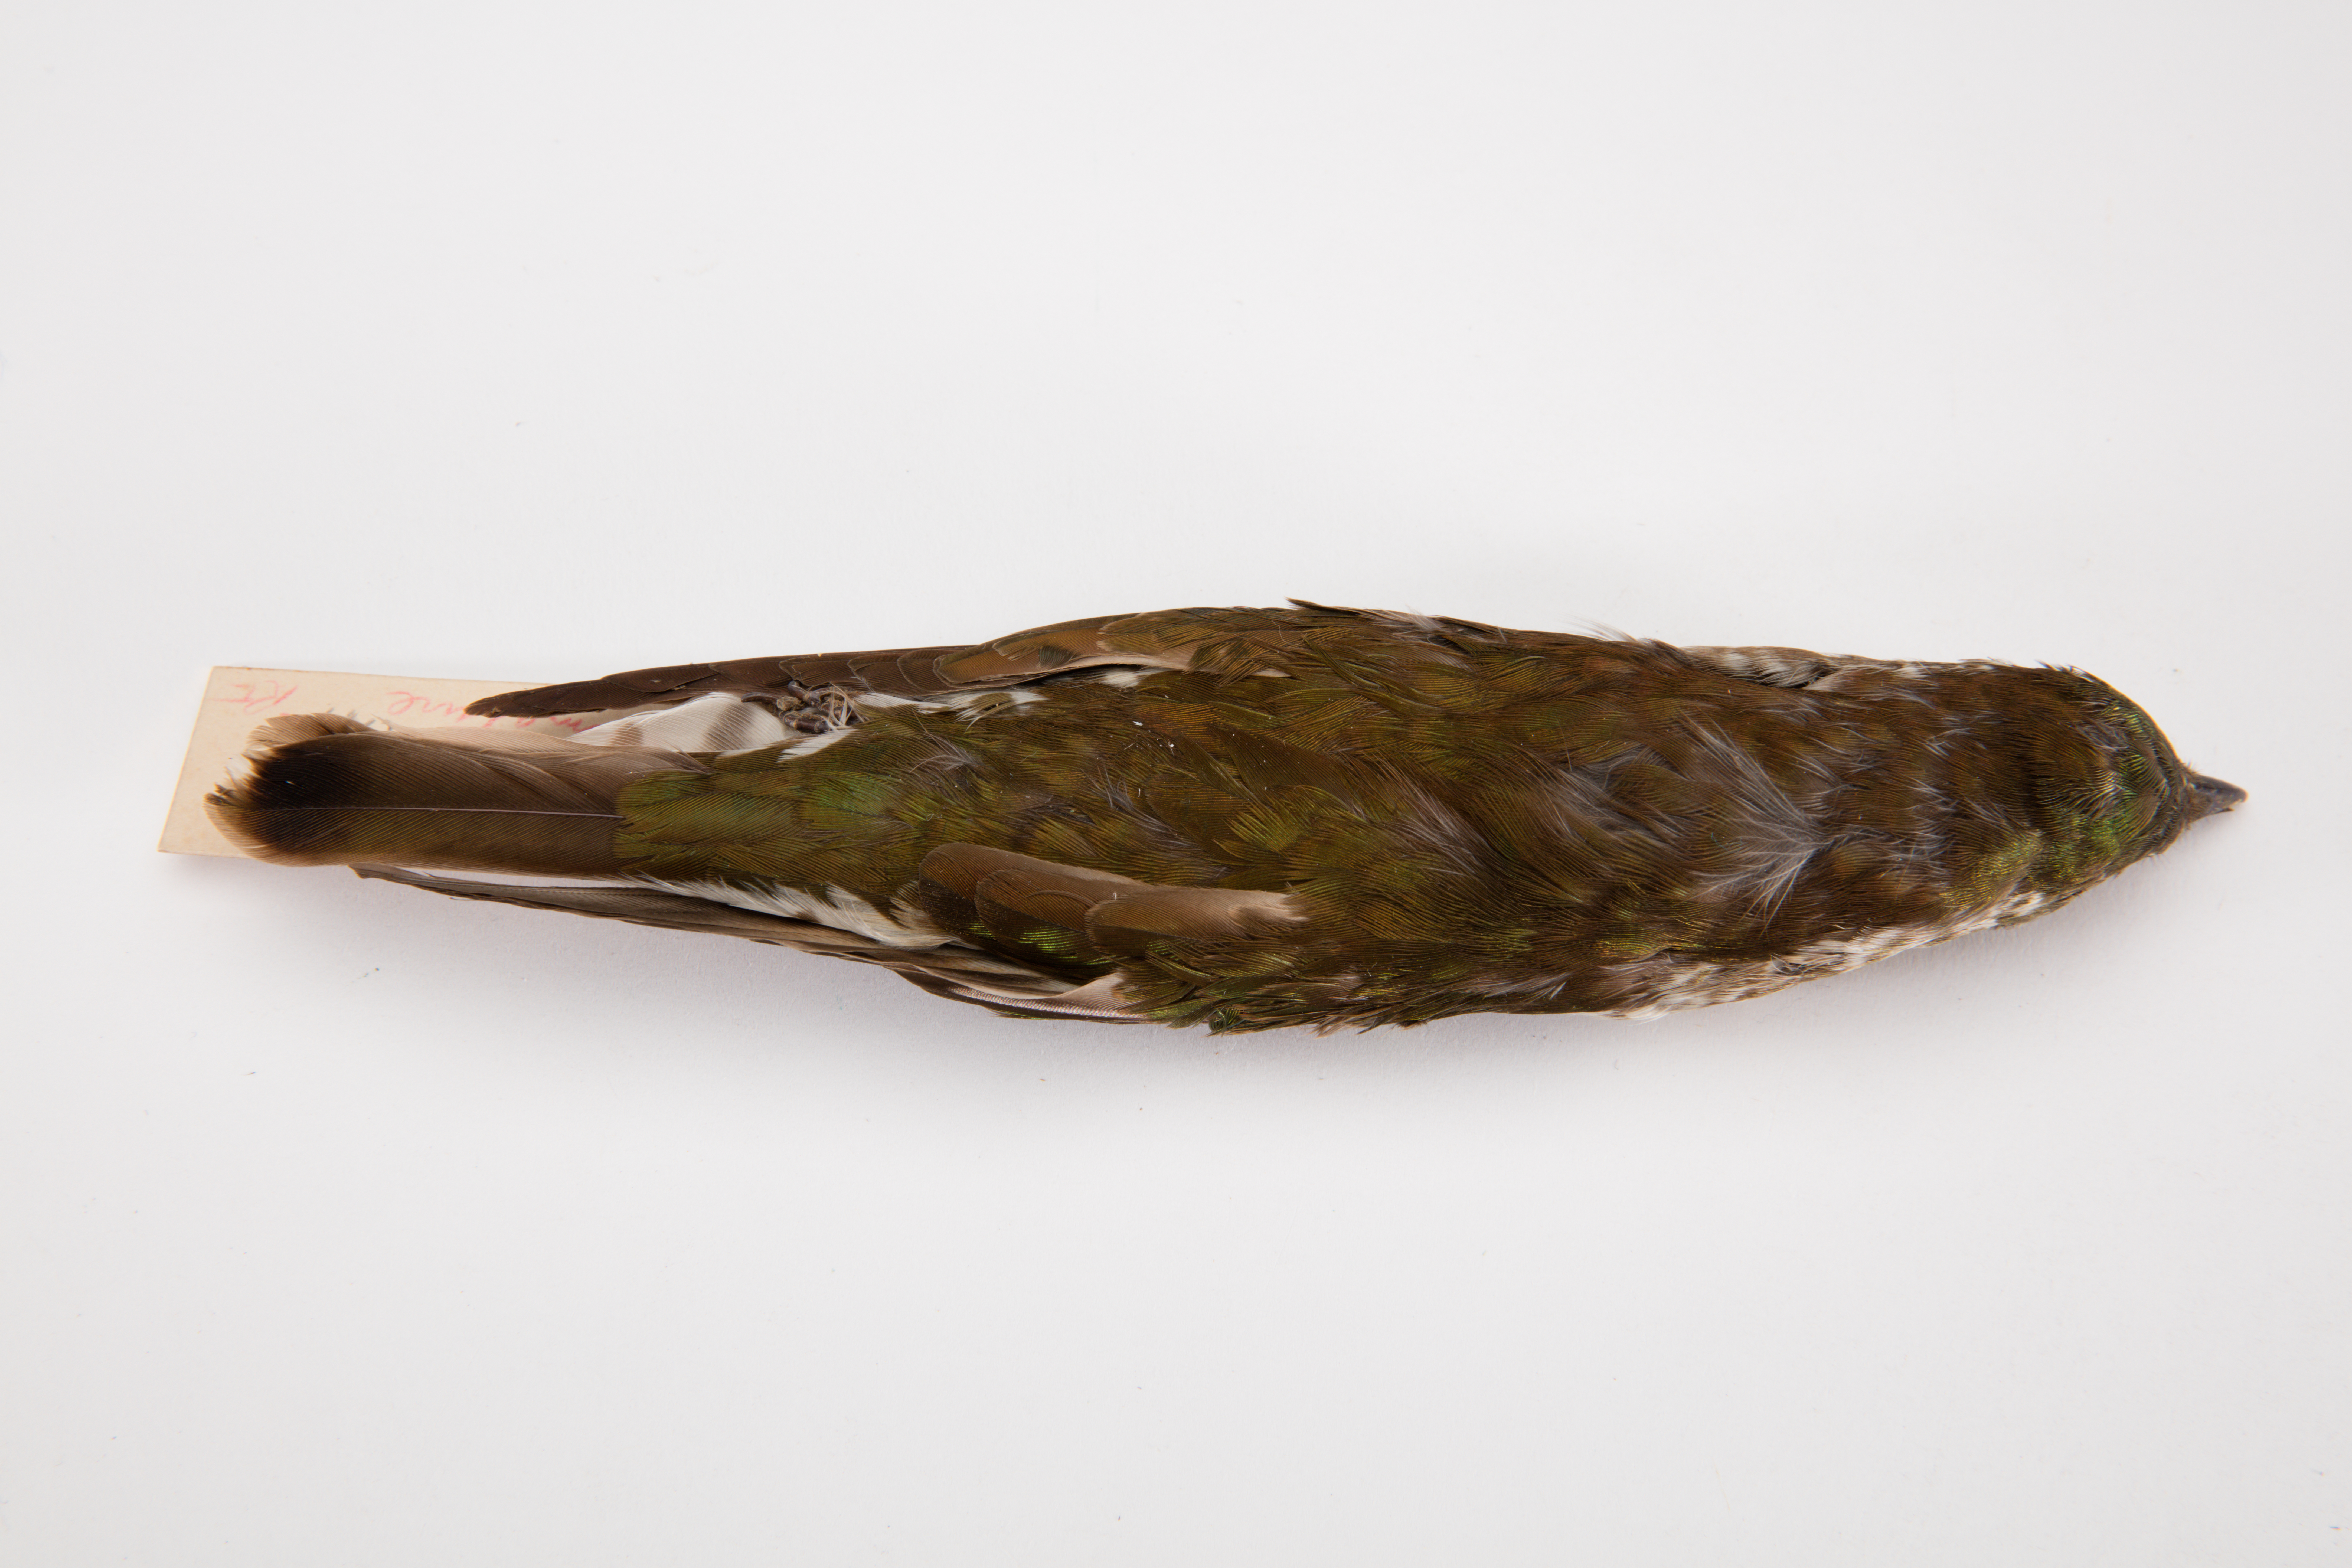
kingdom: Animalia
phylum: Chordata
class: Aves
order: Cuculiformes
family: Cuculidae
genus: Chrysococcyx
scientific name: Chrysococcyx lucidus
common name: Shining bronze cuckoo
